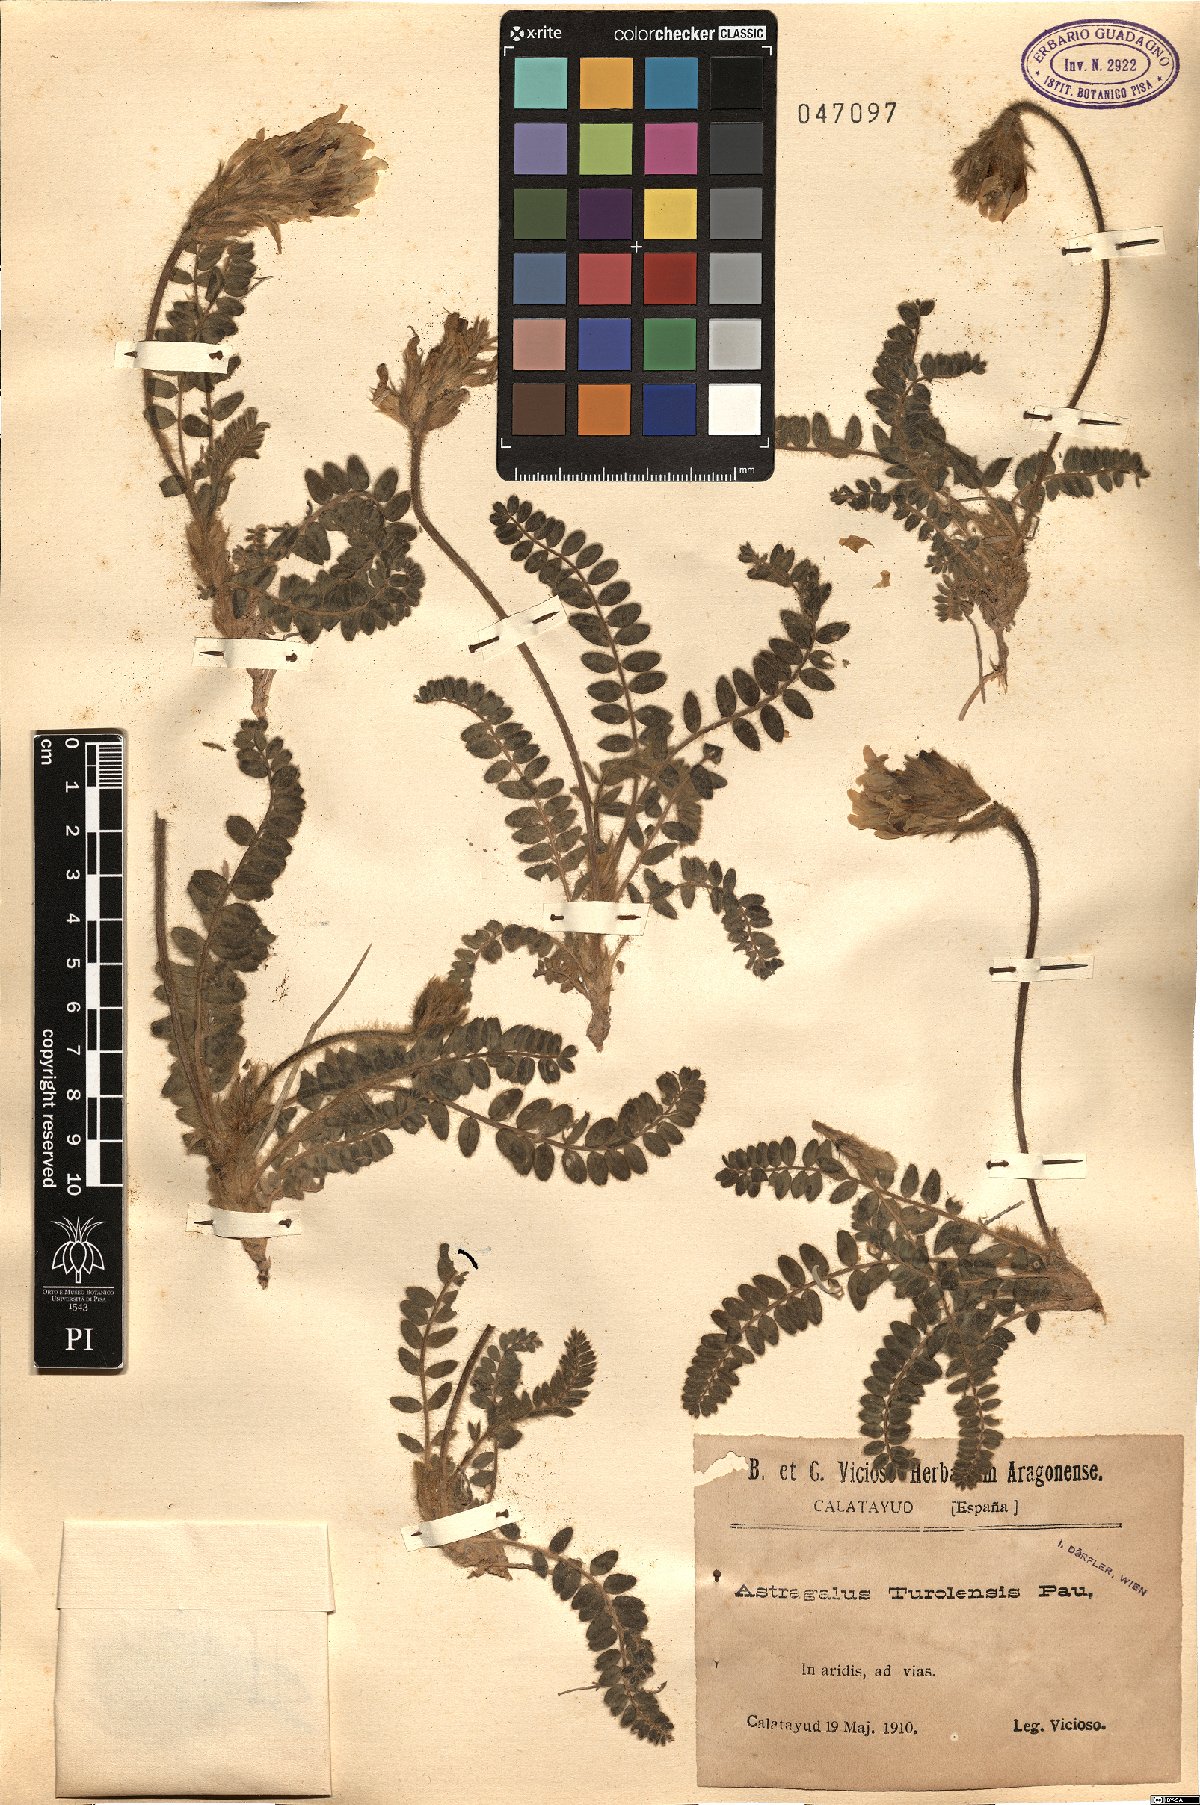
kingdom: Plantae
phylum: Tracheophyta
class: Magnoliopsida
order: Fabales
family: Fabaceae
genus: Astragalus
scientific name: Astragalus turolensis
